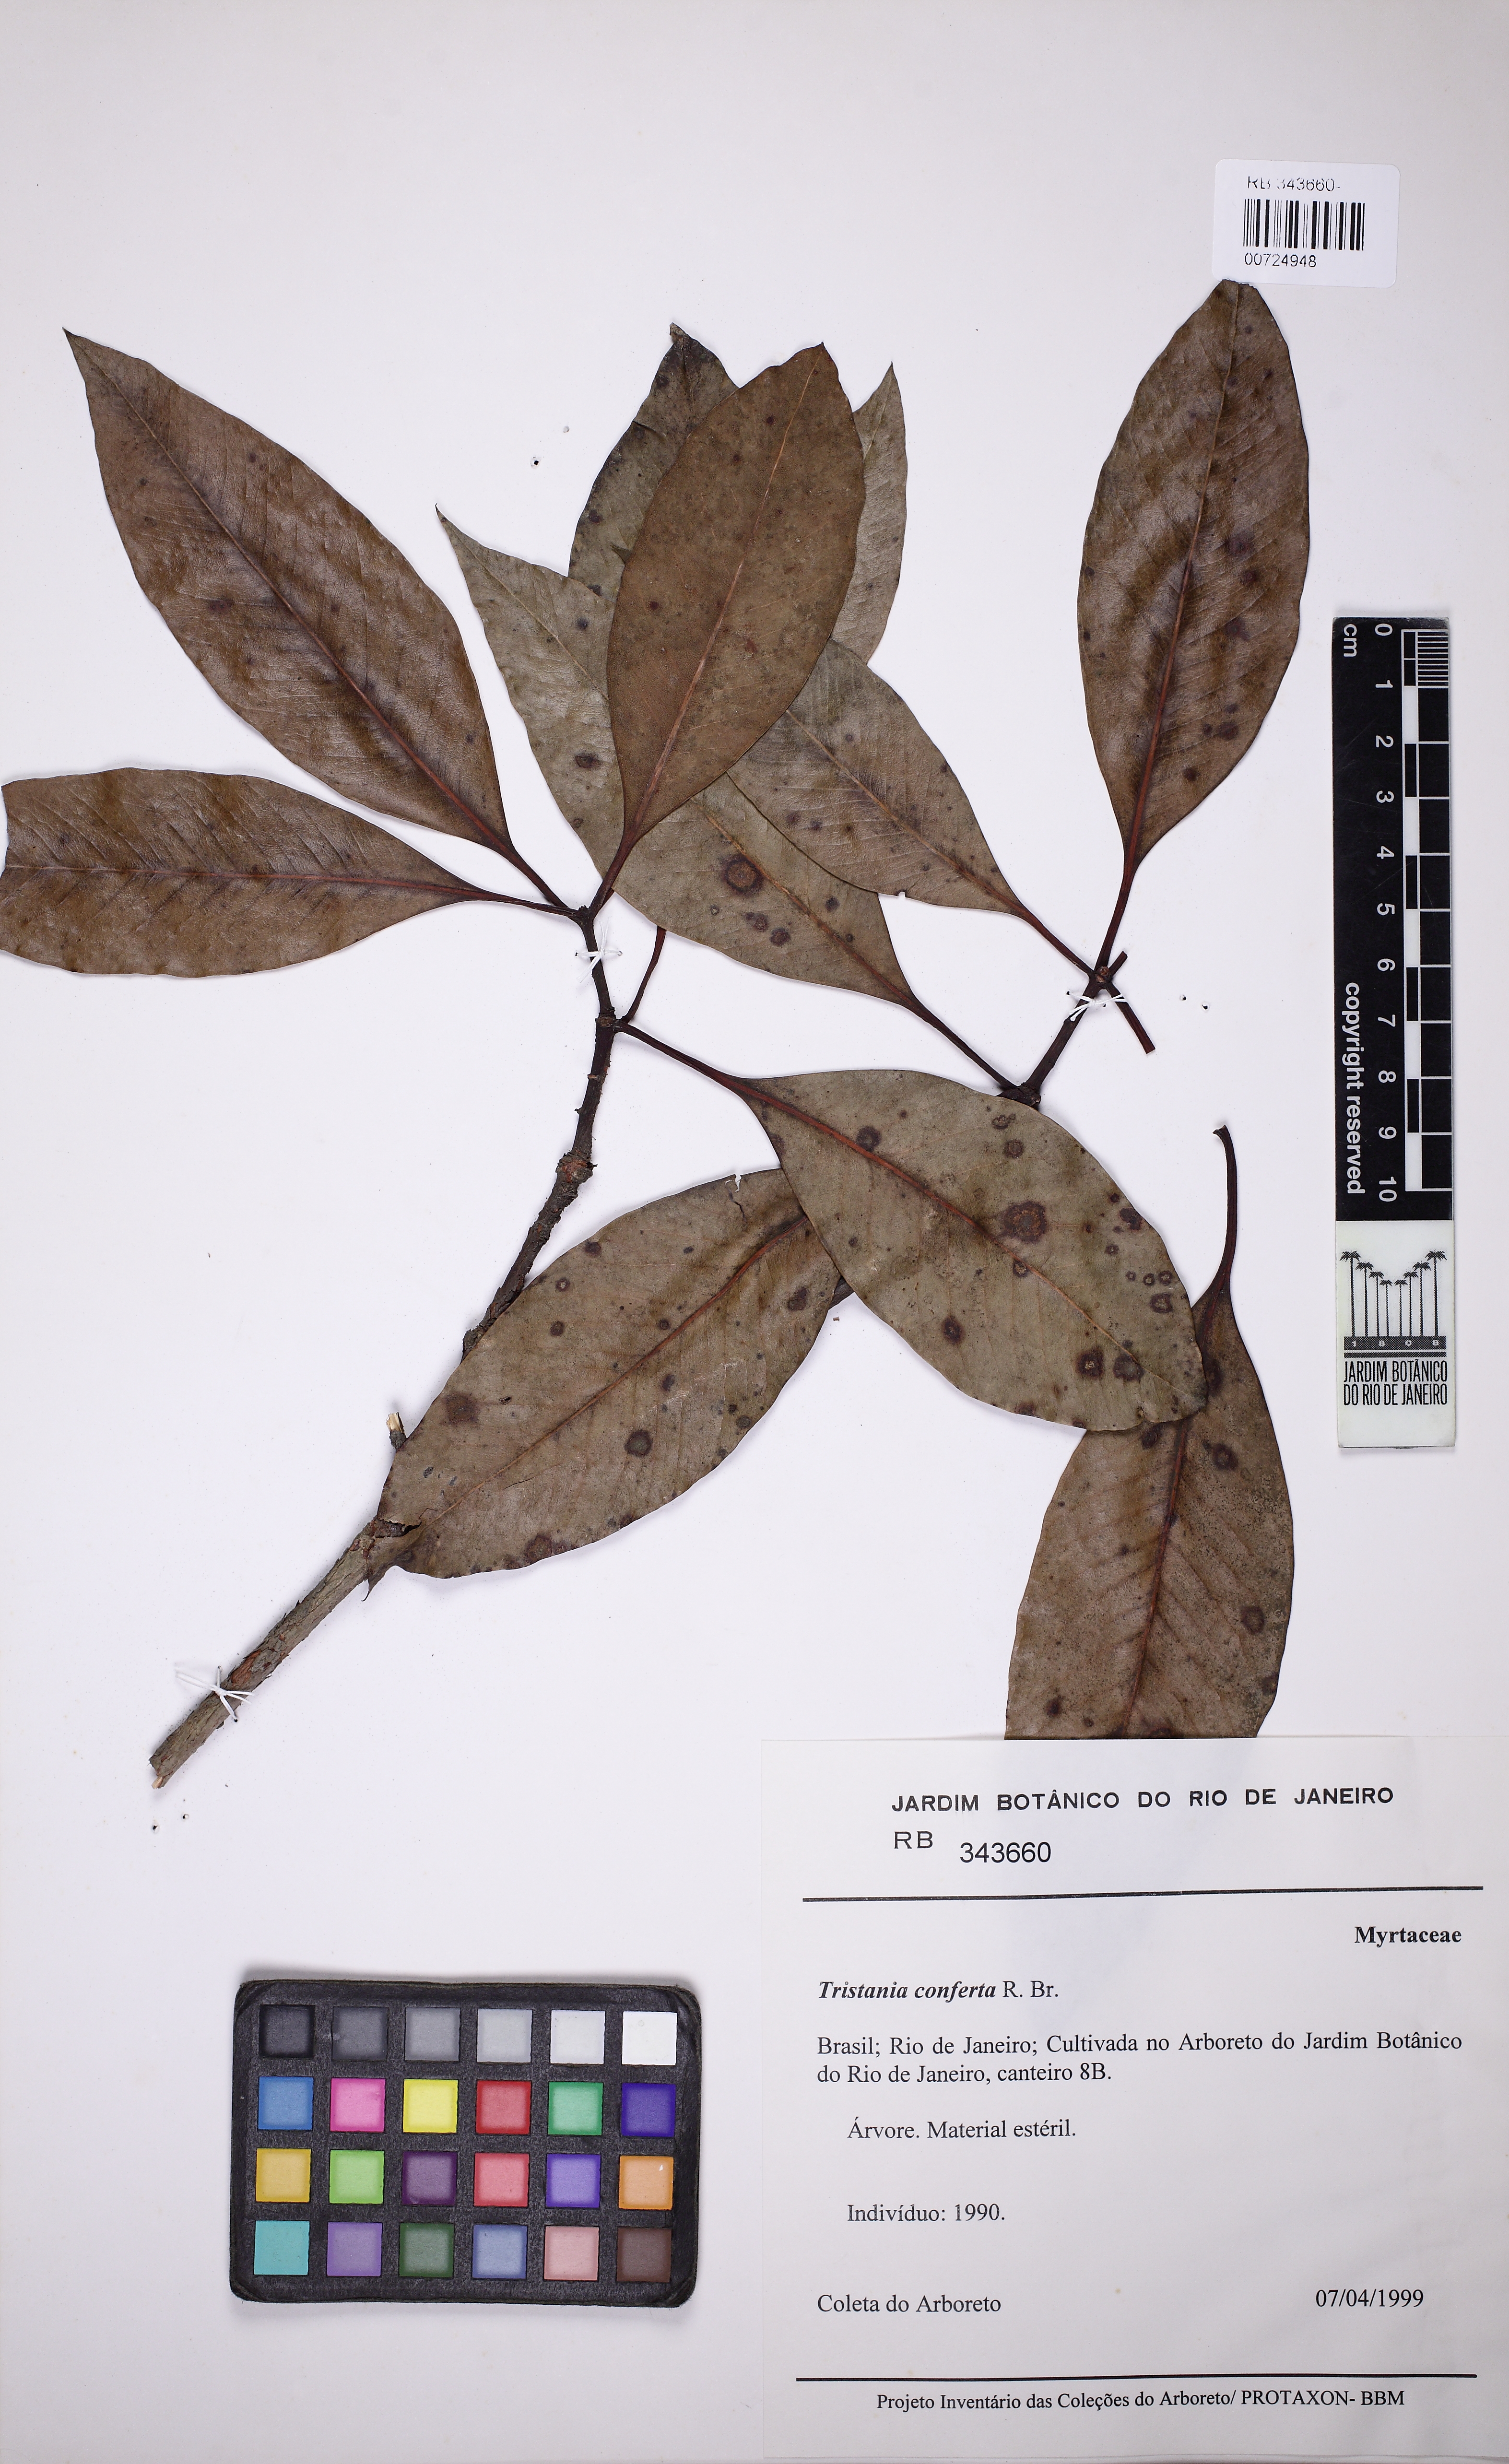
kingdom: Plantae
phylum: Tracheophyta
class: Magnoliopsida
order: Myrtales
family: Myrtaceae
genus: Lophostemon
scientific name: Lophostemon confertus
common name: Brisbane box
